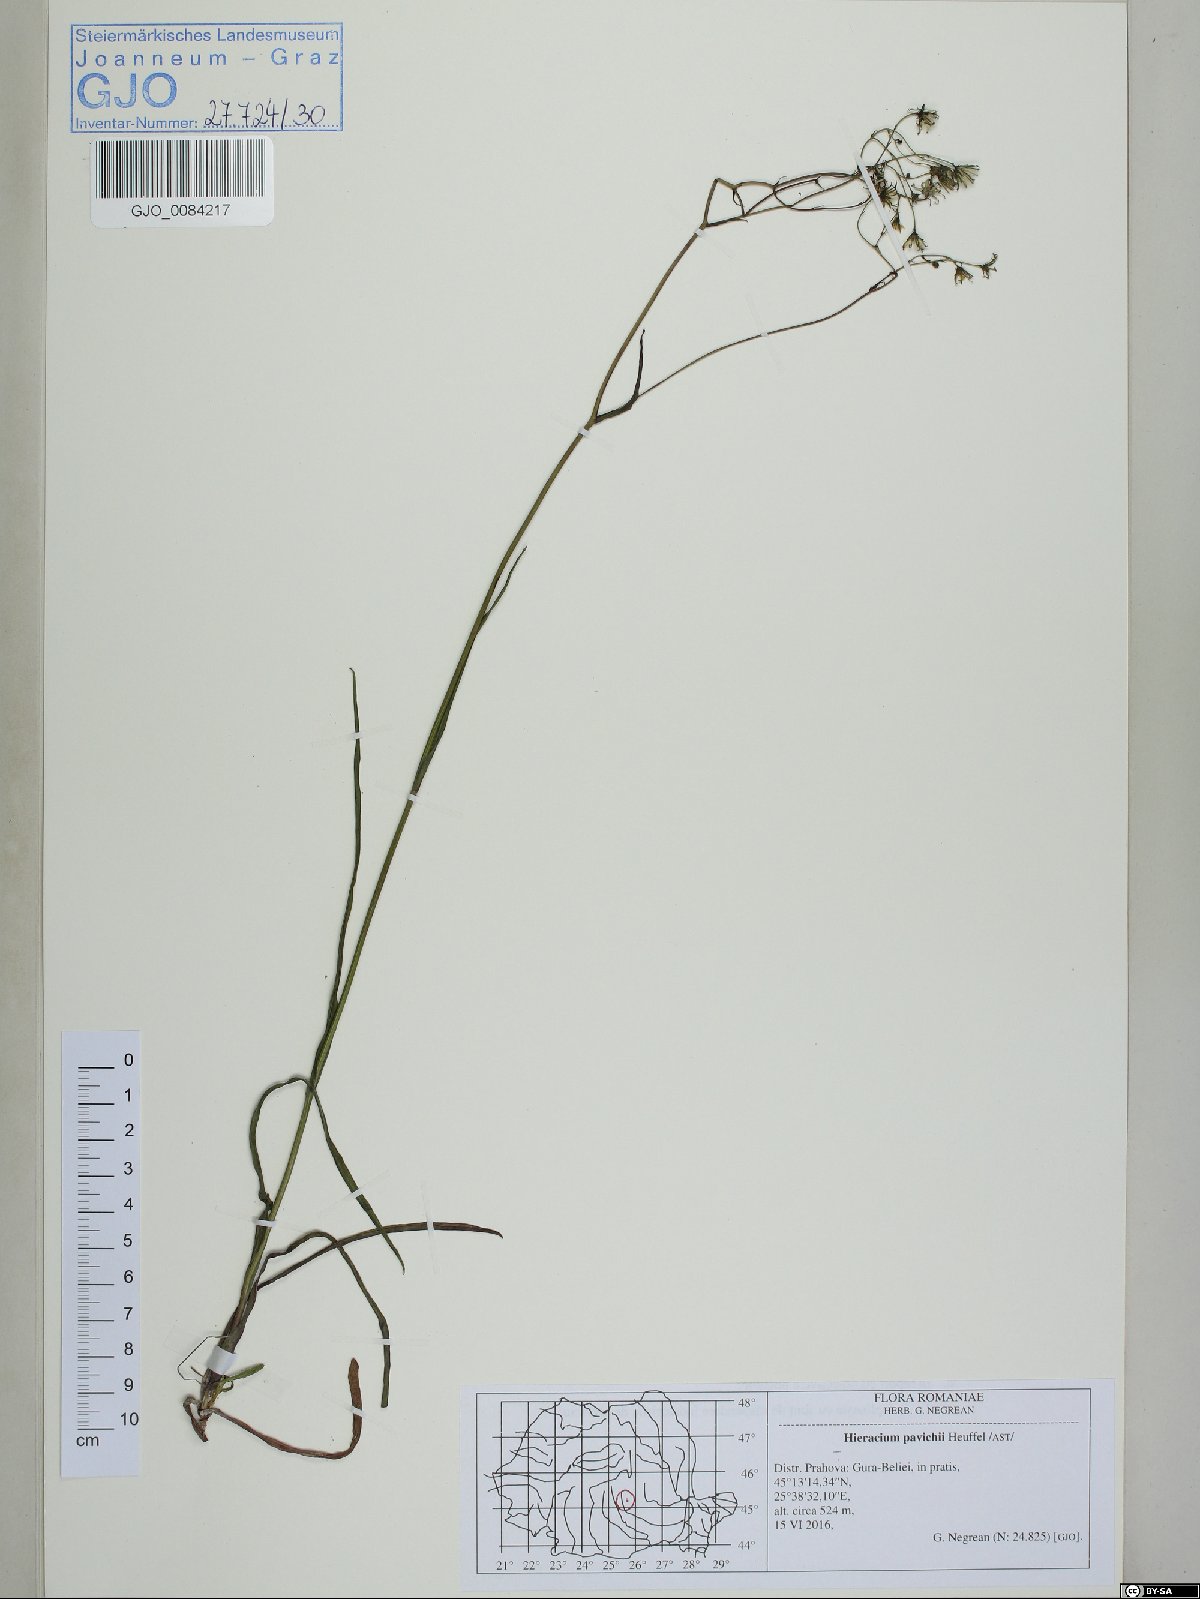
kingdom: Plantae
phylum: Tracheophyta
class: Magnoliopsida
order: Asterales
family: Asteraceae
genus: Pilosella
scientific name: Pilosella pavichii
